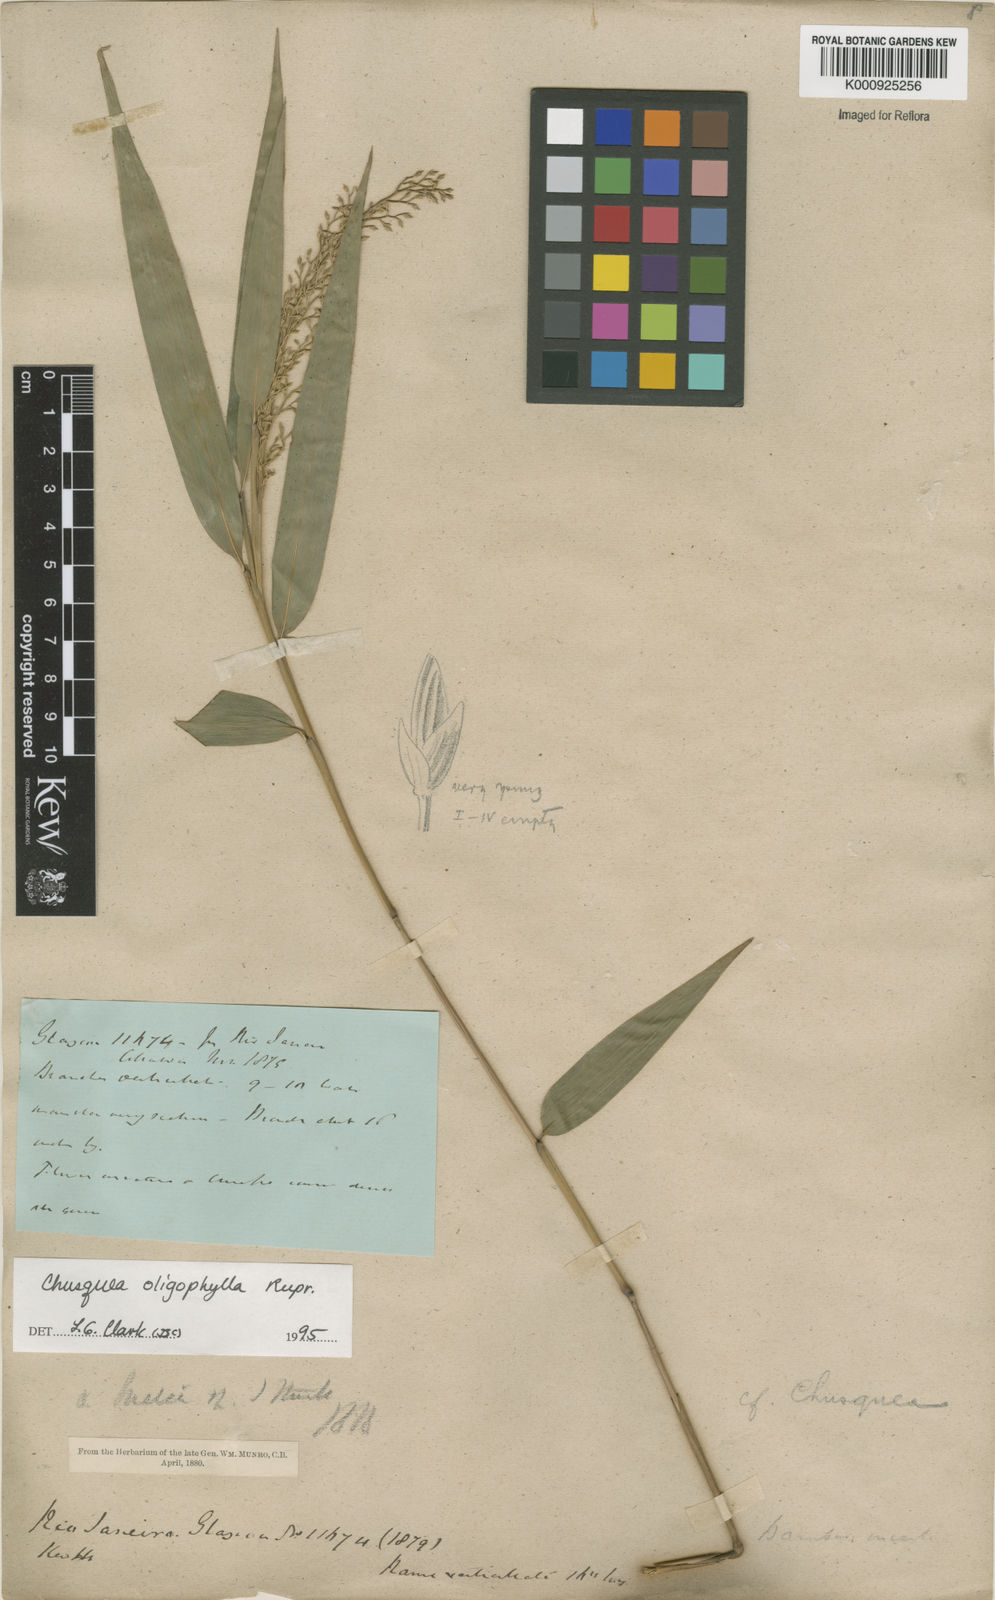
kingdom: Plantae
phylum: Tracheophyta
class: Liliopsida
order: Poales
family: Poaceae
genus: Chusquea
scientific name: Chusquea oligophylla
